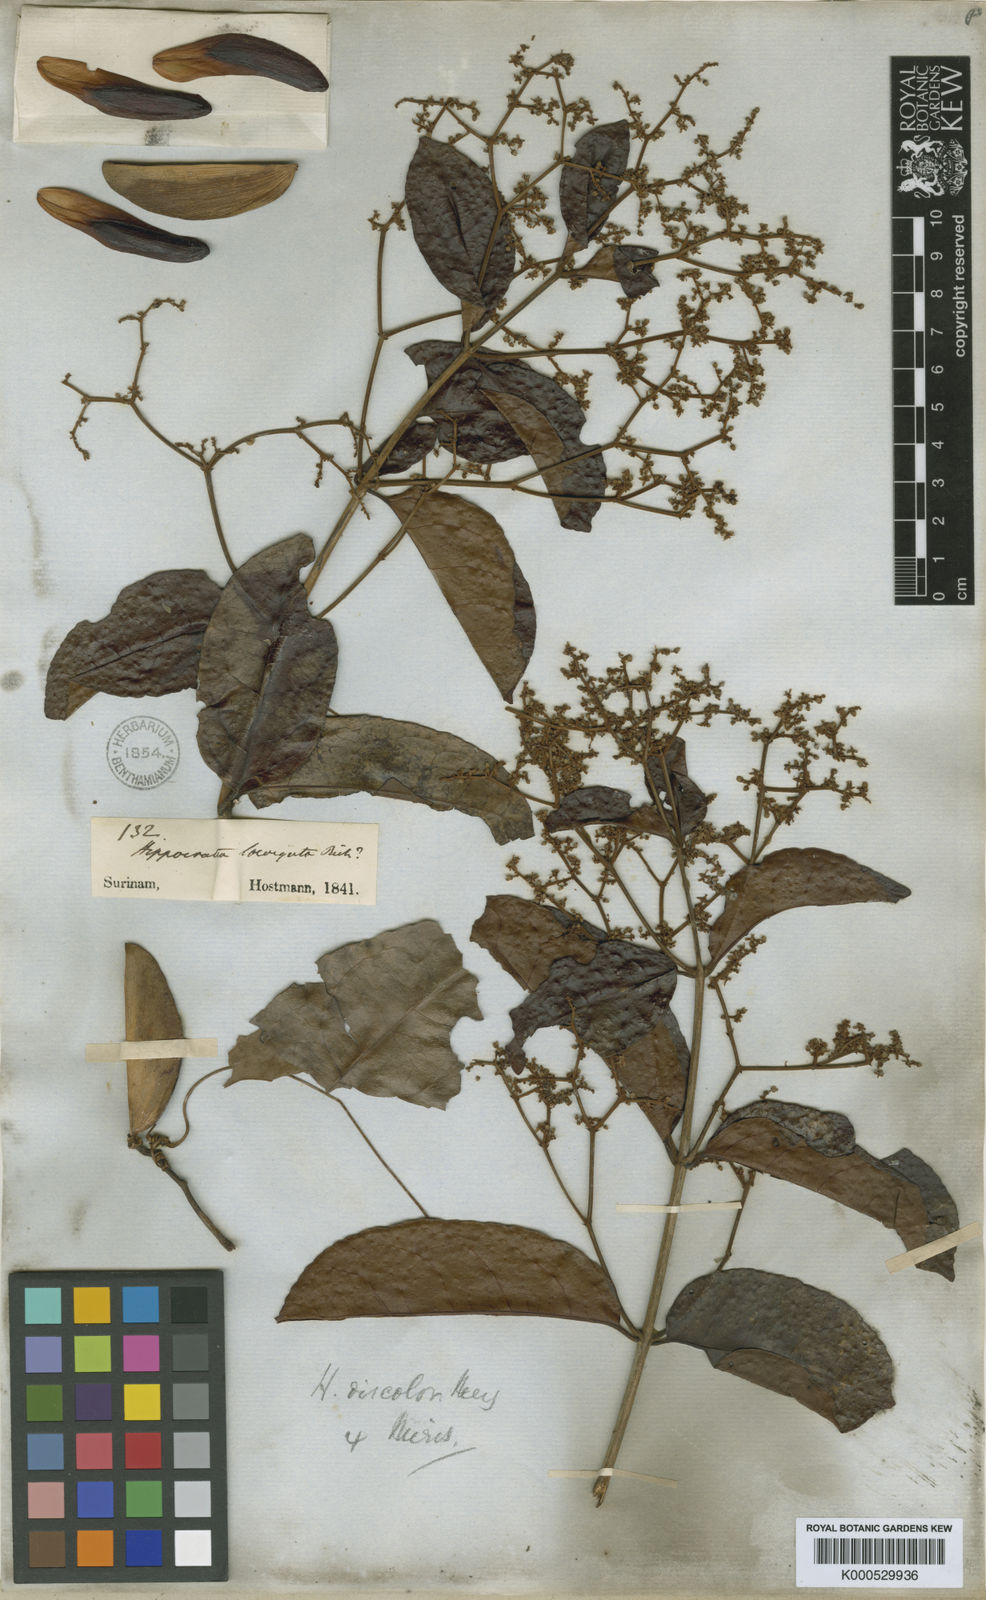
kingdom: Plantae
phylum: Tracheophyta
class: Magnoliopsida
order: Celastrales
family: Celastraceae
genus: Hippocratea
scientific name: Hippocratea volubilis
